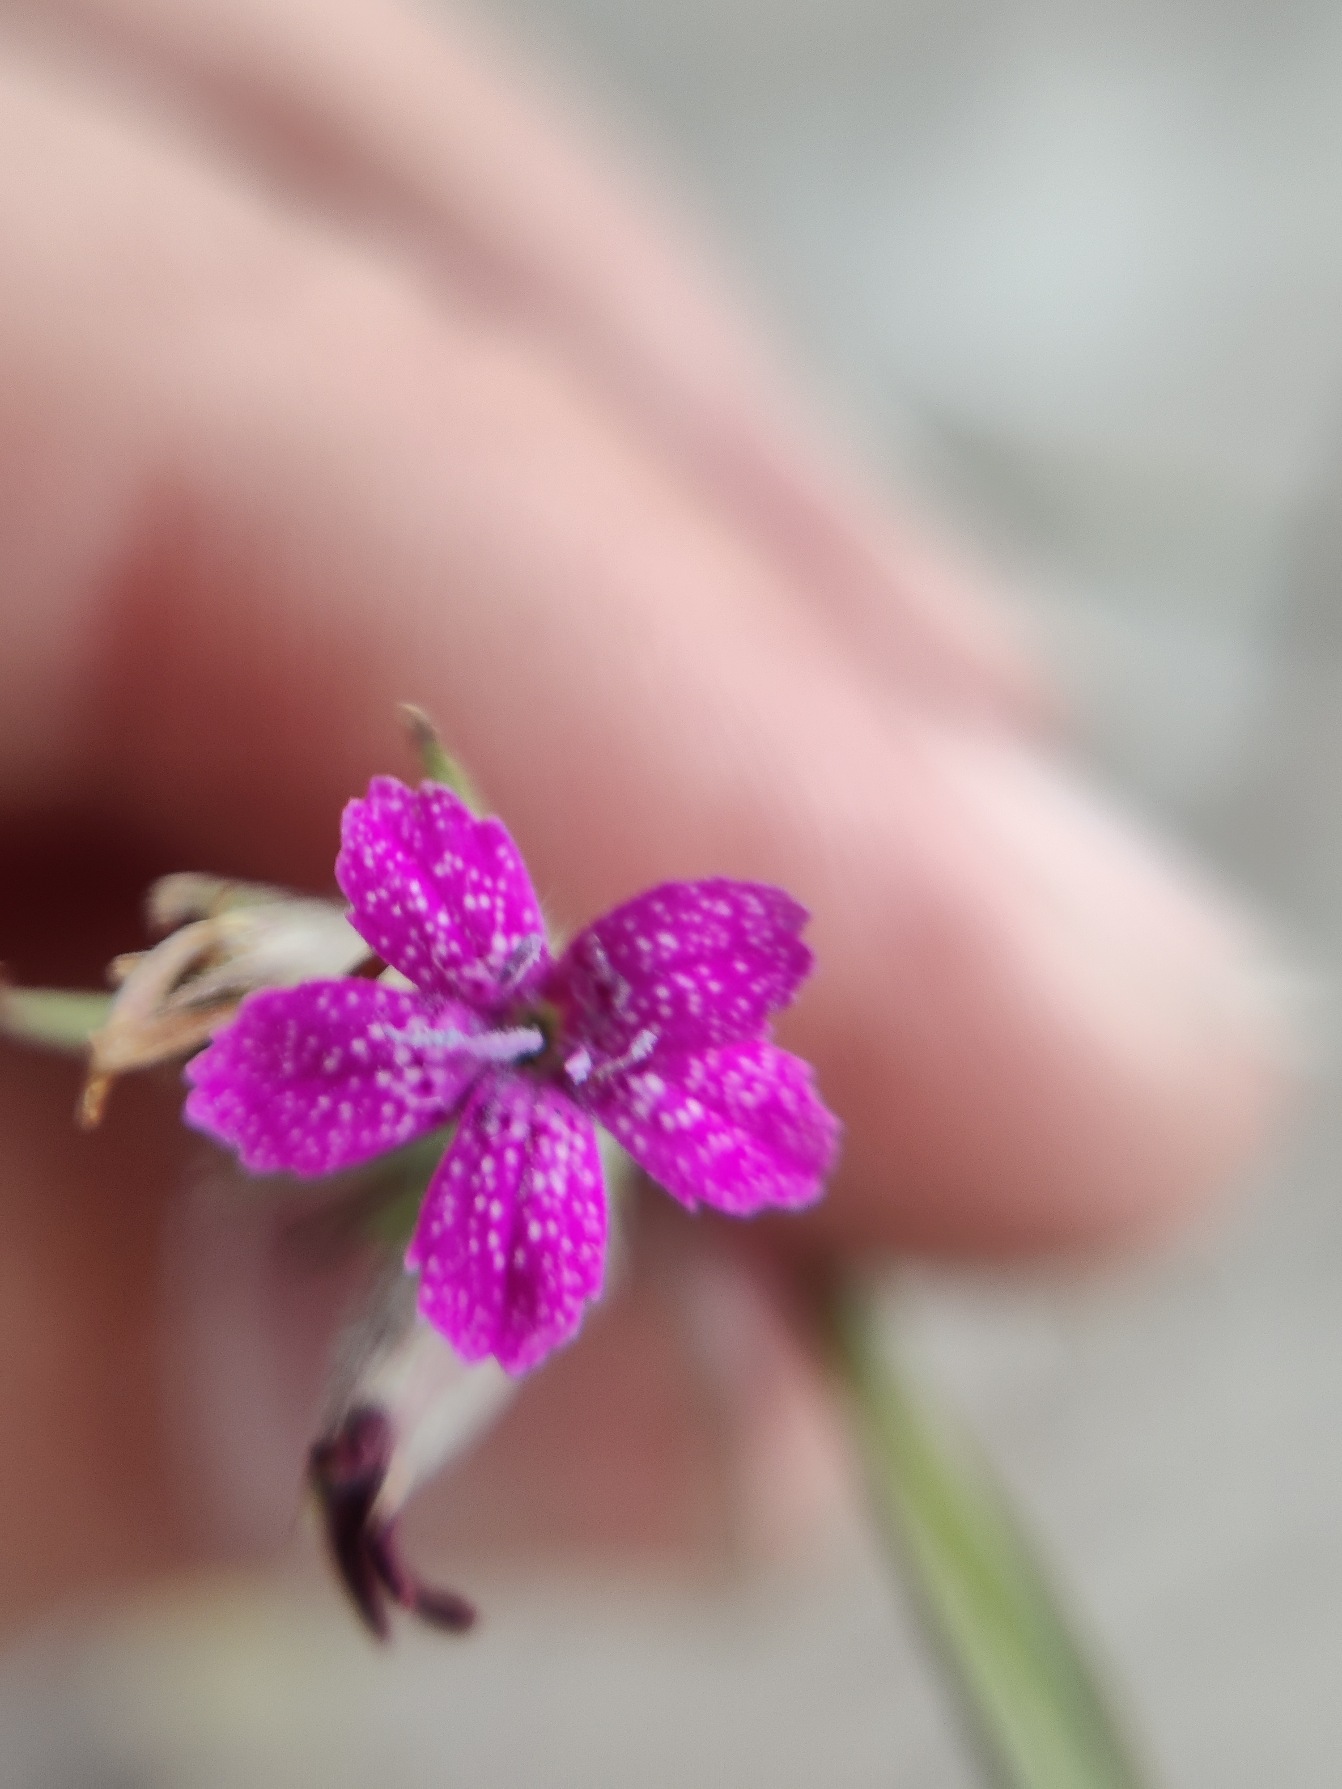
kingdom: Plantae
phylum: Tracheophyta
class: Magnoliopsida
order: Caryophyllales
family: Caryophyllaceae
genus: Dianthus
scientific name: Dianthus armeria
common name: Kost-nellike
